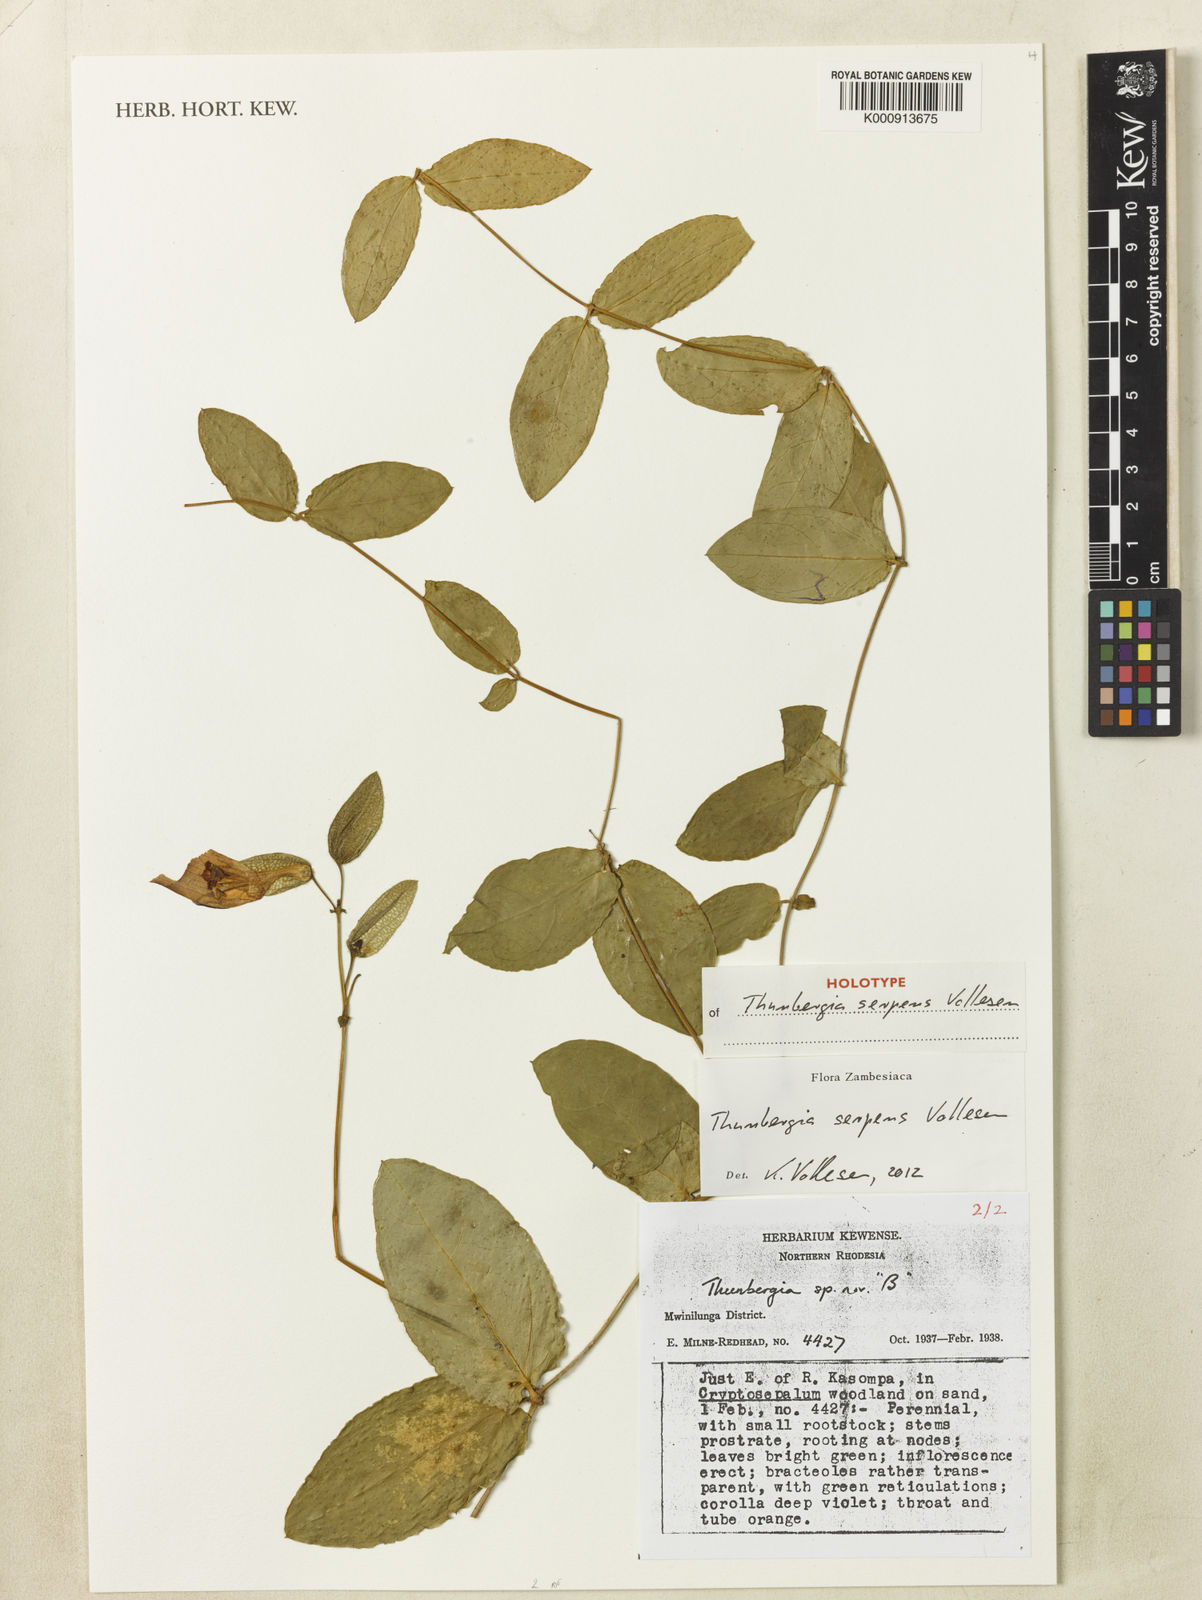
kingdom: Plantae
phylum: Tracheophyta
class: Magnoliopsida
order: Lamiales
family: Acanthaceae
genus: Thunbergia
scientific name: Thunbergia serpens
